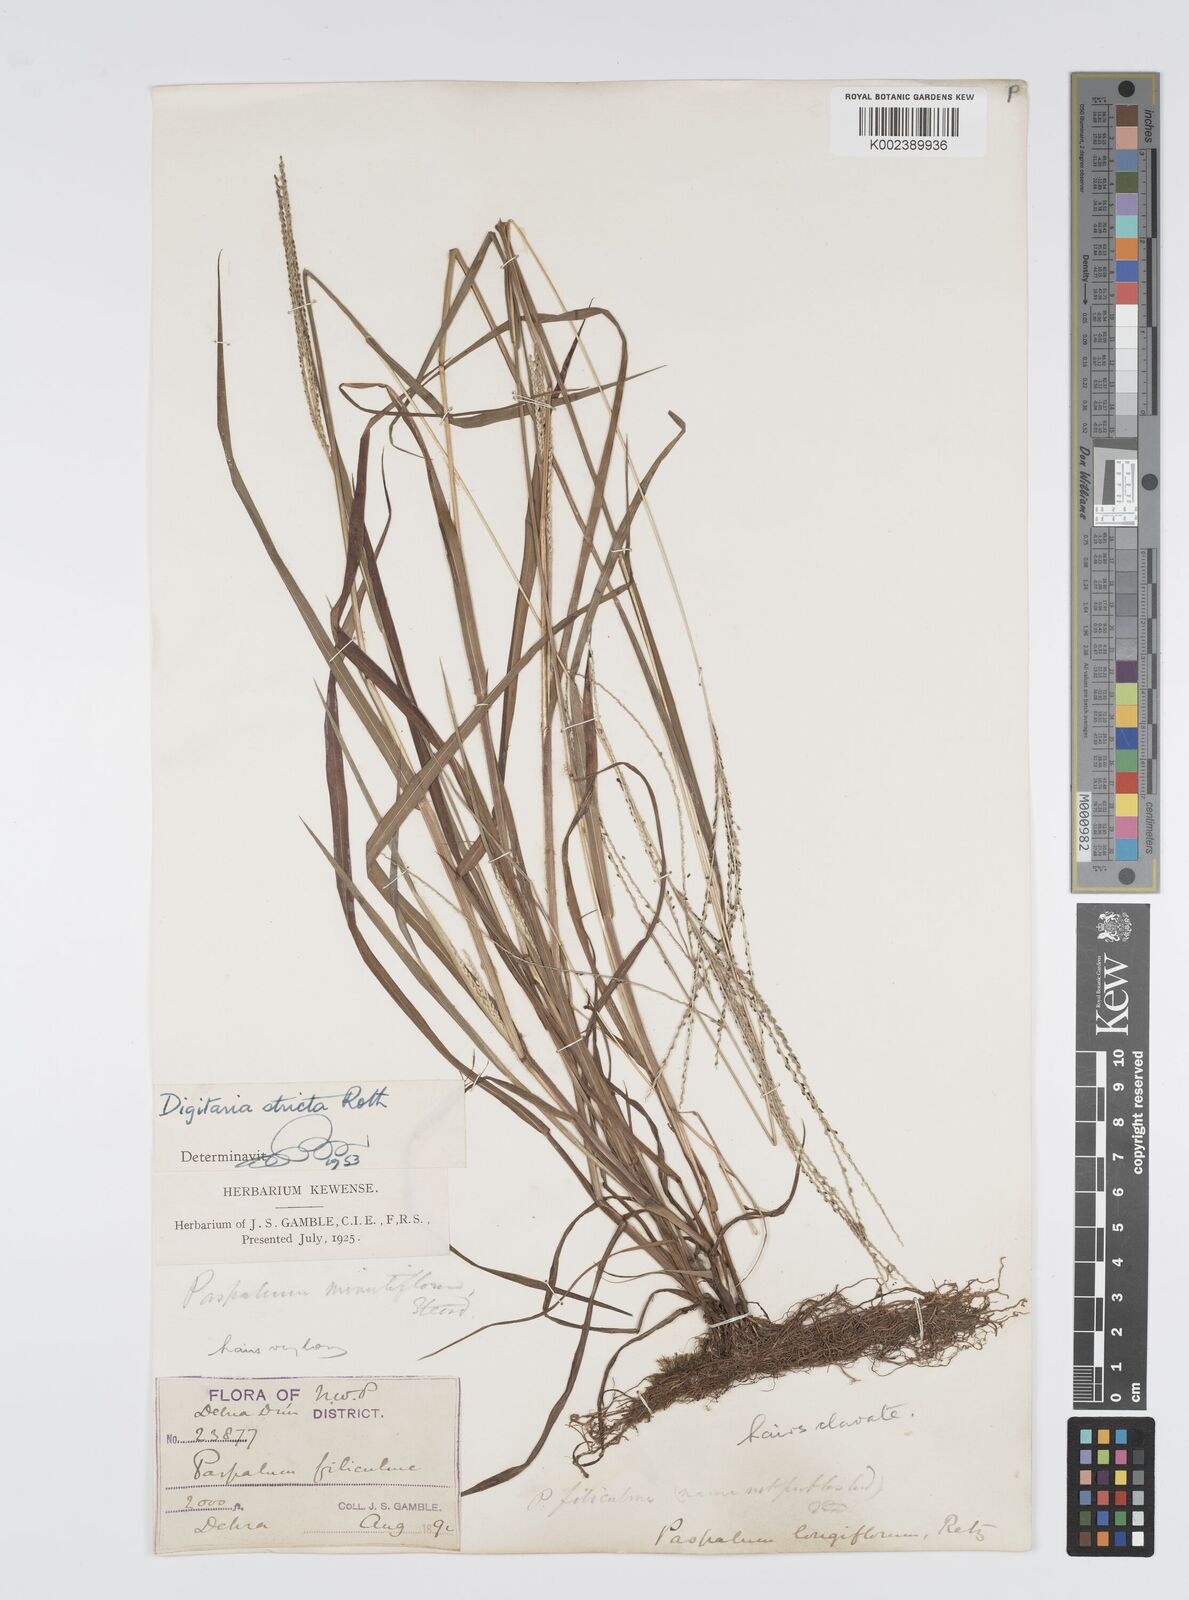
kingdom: Plantae
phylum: Tracheophyta
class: Liliopsida
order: Poales
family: Poaceae
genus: Digitaria
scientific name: Digitaria stricta
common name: Crabgrass
